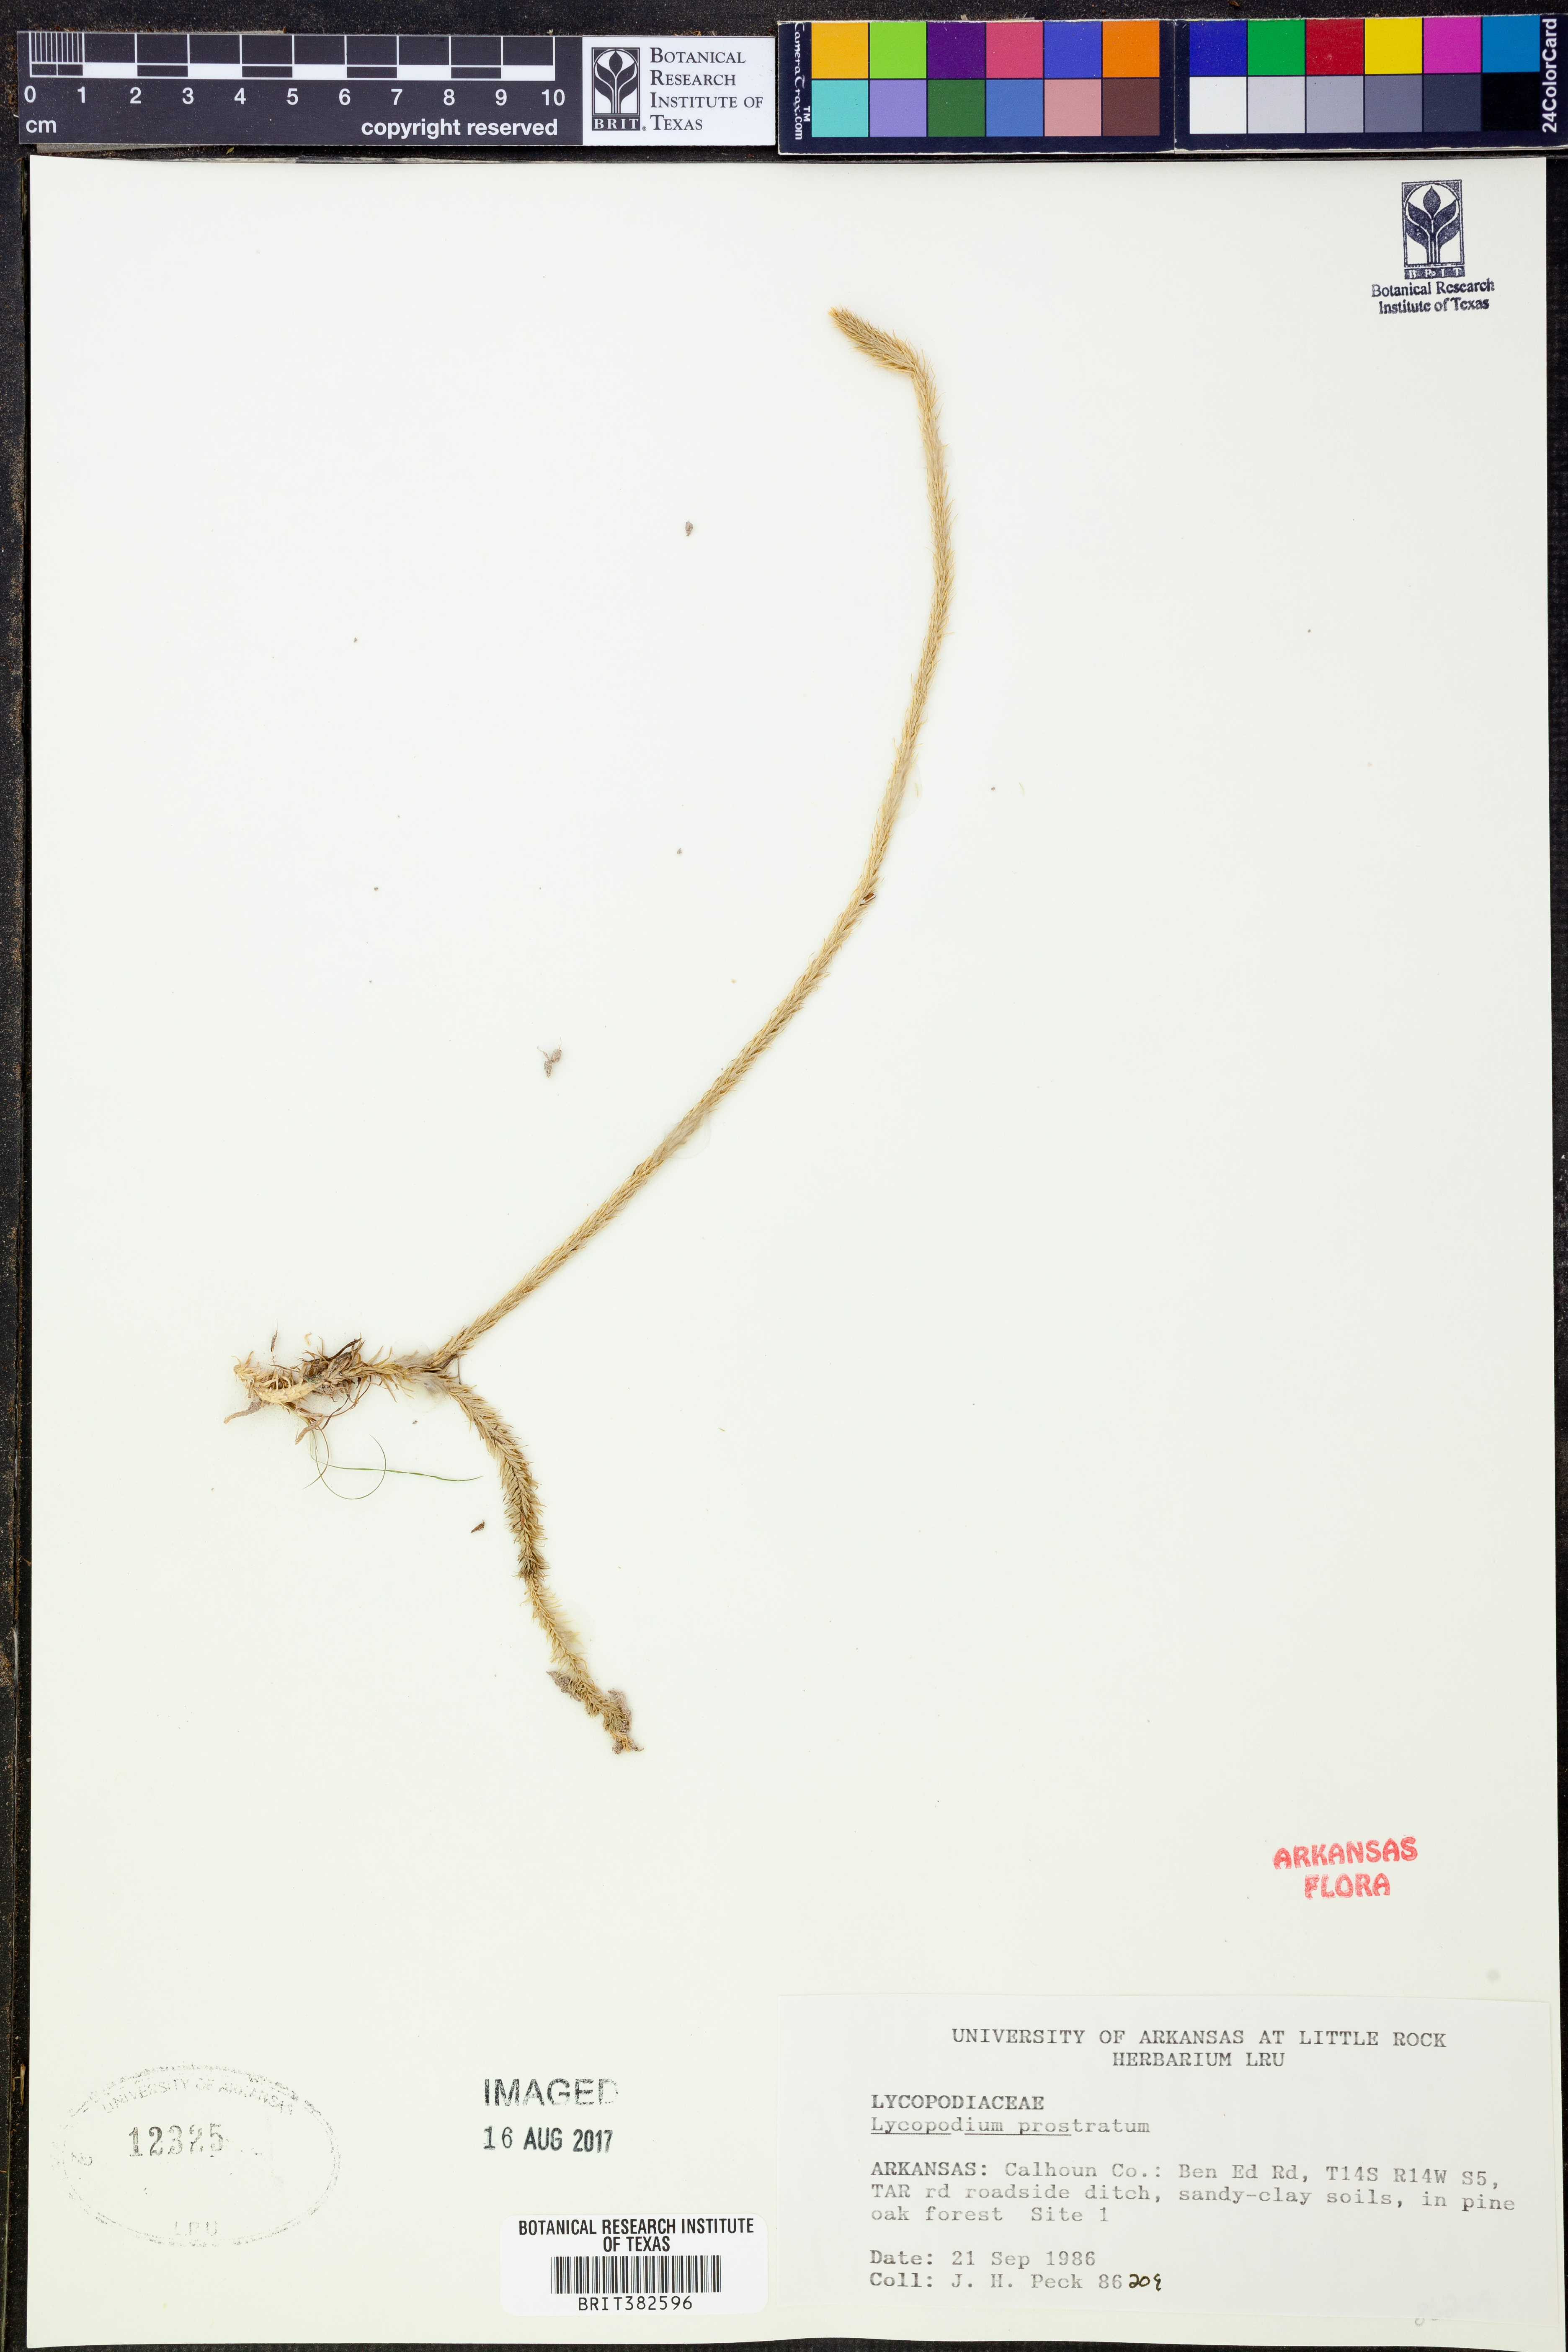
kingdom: Plantae
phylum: Tracheophyta
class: Lycopodiopsida
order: Lycopodiales
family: Lycopodiaceae
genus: Lycopodiella
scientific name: Lycopodiella prostrata
